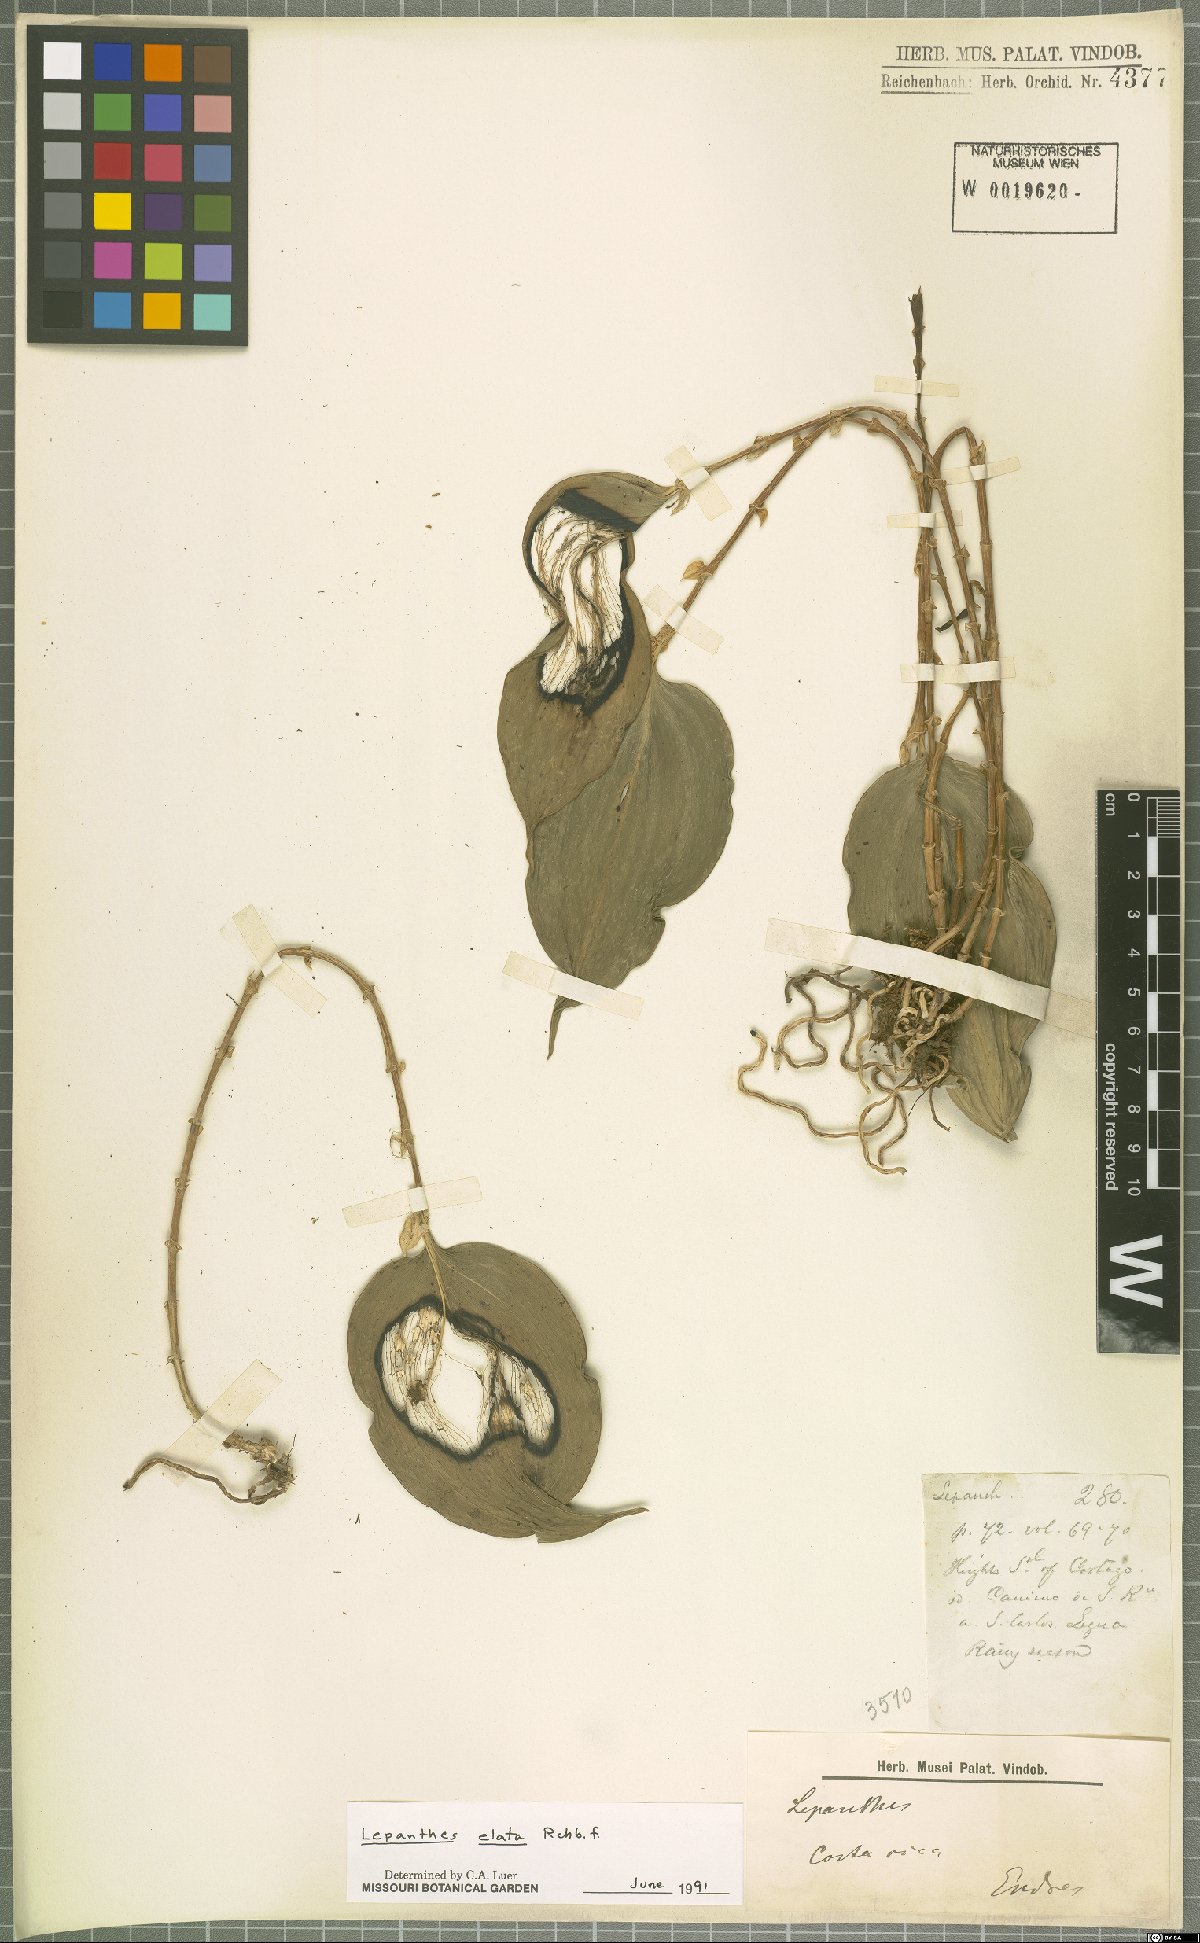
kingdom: Plantae
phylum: Tracheophyta
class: Liliopsida
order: Asparagales
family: Orchidaceae
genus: Lepanthes
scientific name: Lepanthes elata
